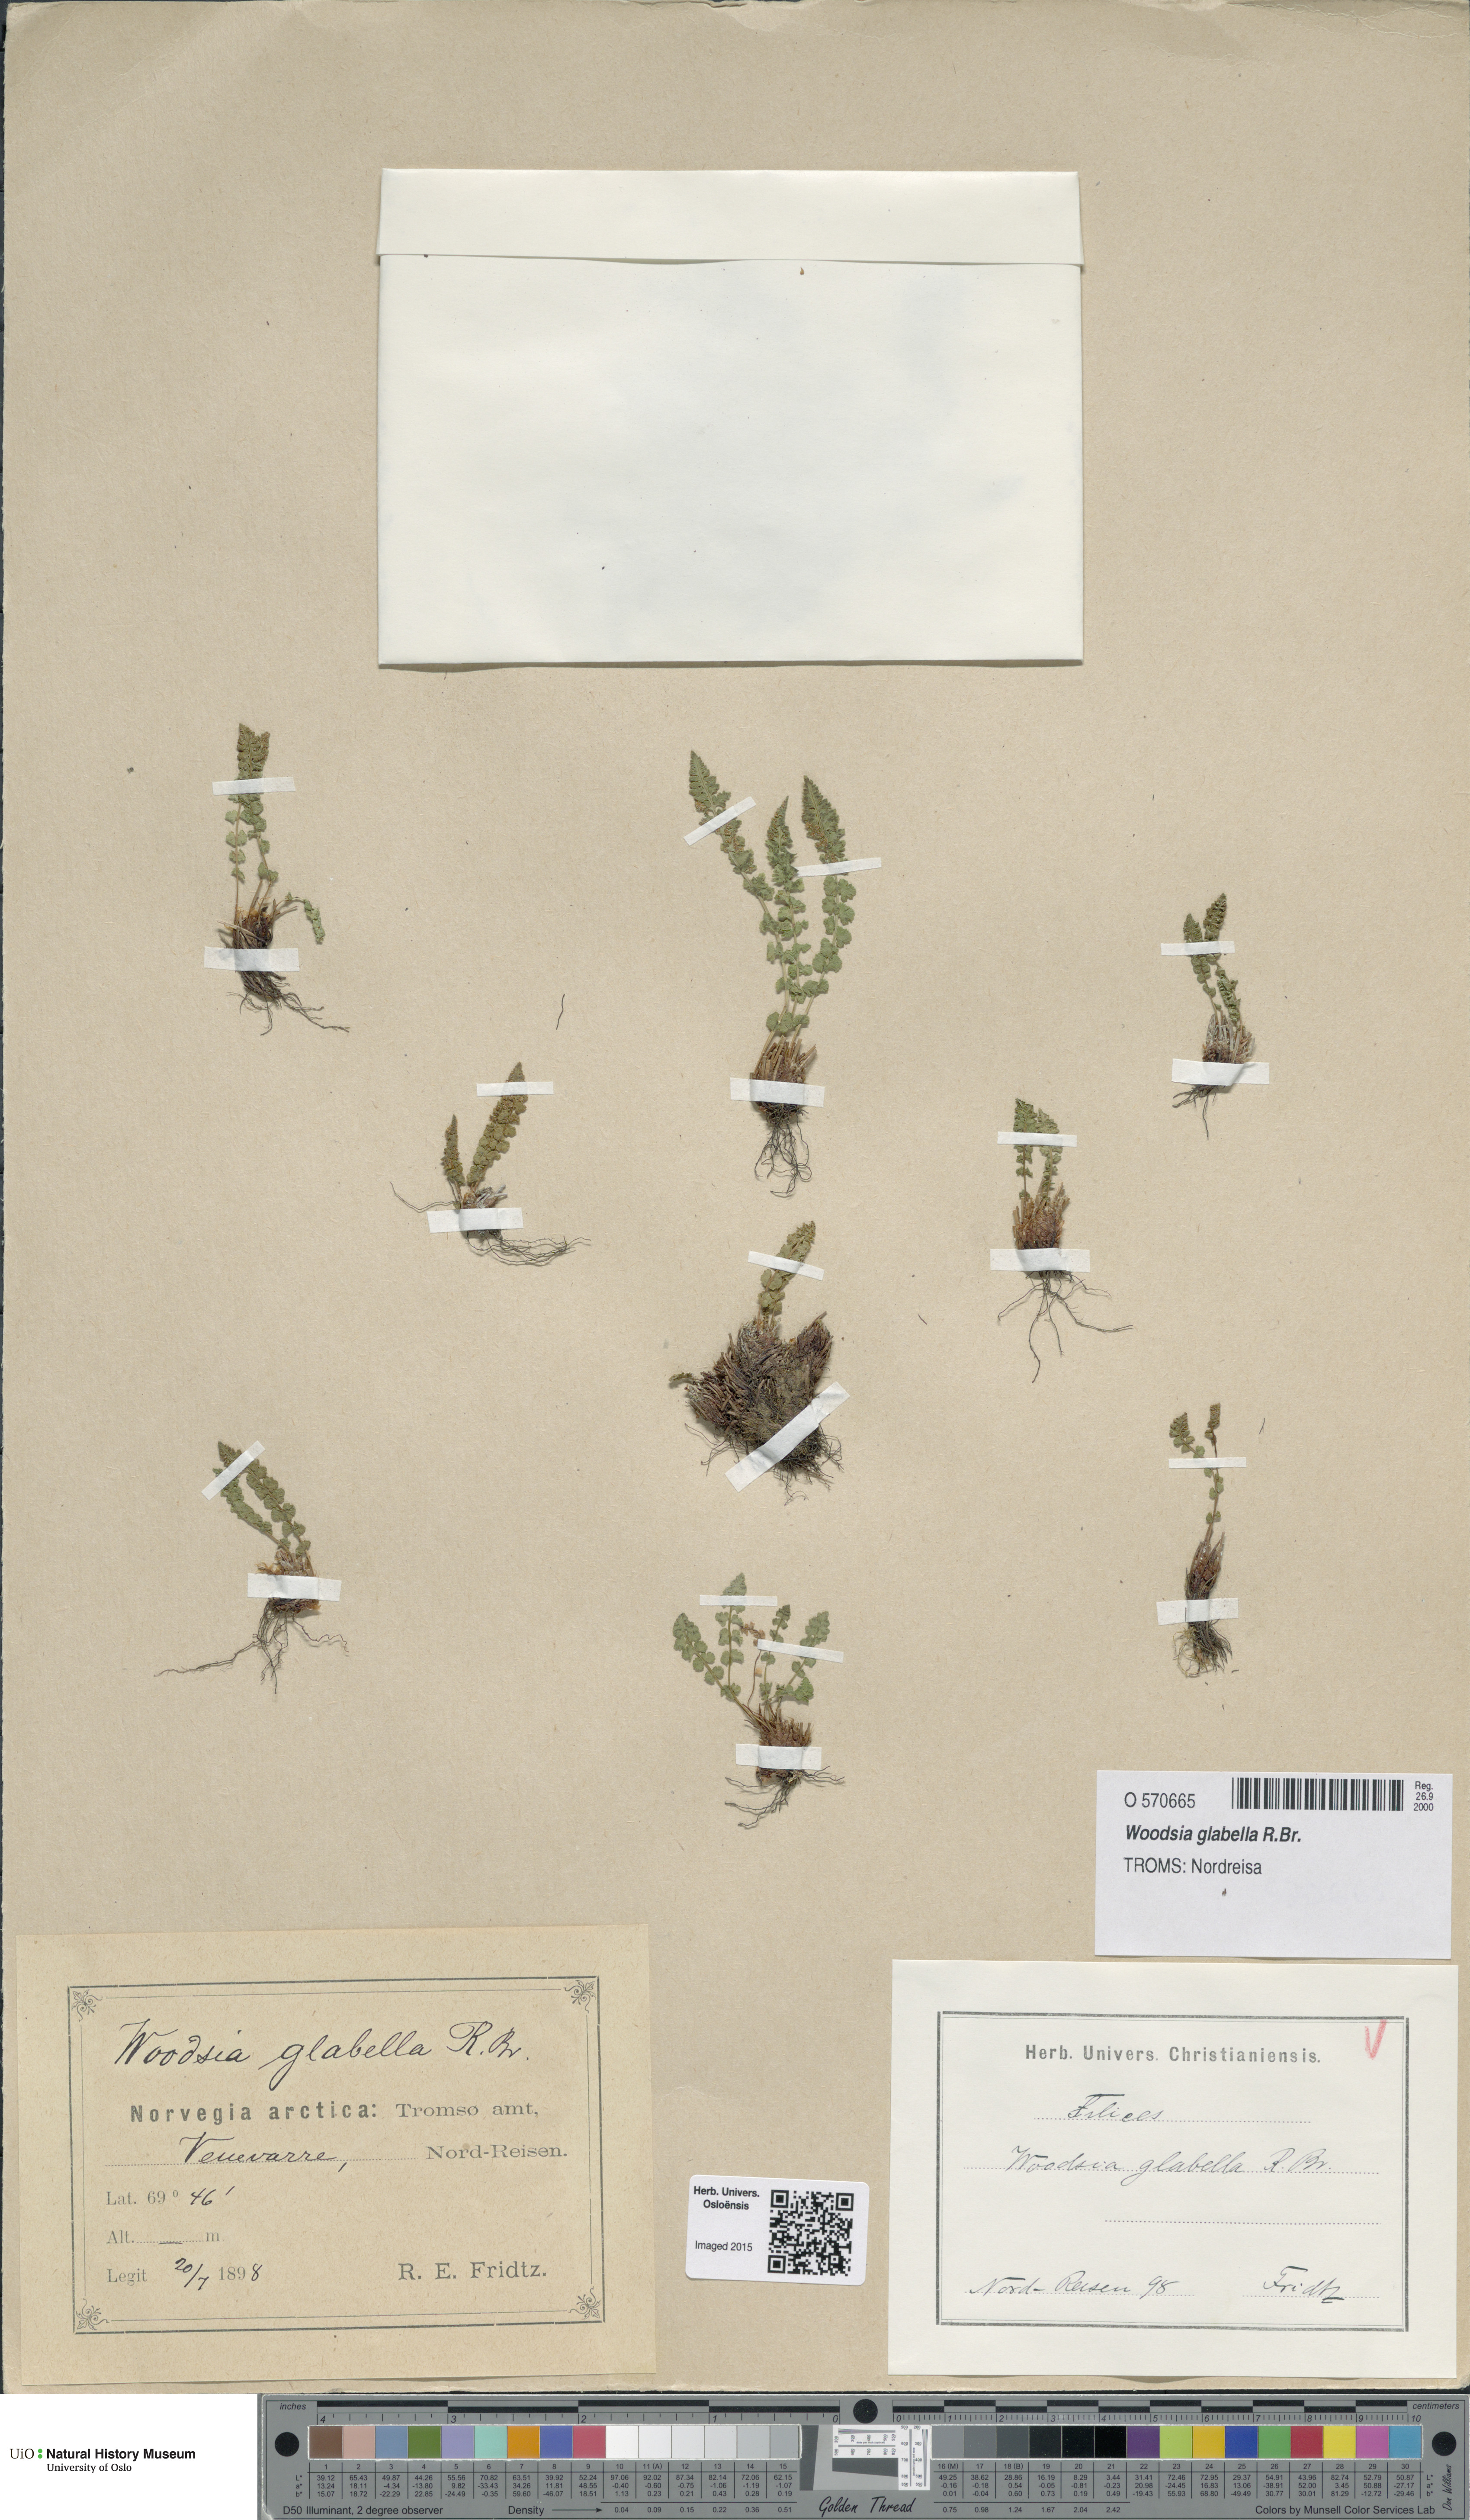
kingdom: Plantae
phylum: Tracheophyta
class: Polypodiopsida
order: Polypodiales
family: Woodsiaceae
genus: Woodsia
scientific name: Woodsia glabella
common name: Smooth woodsia
